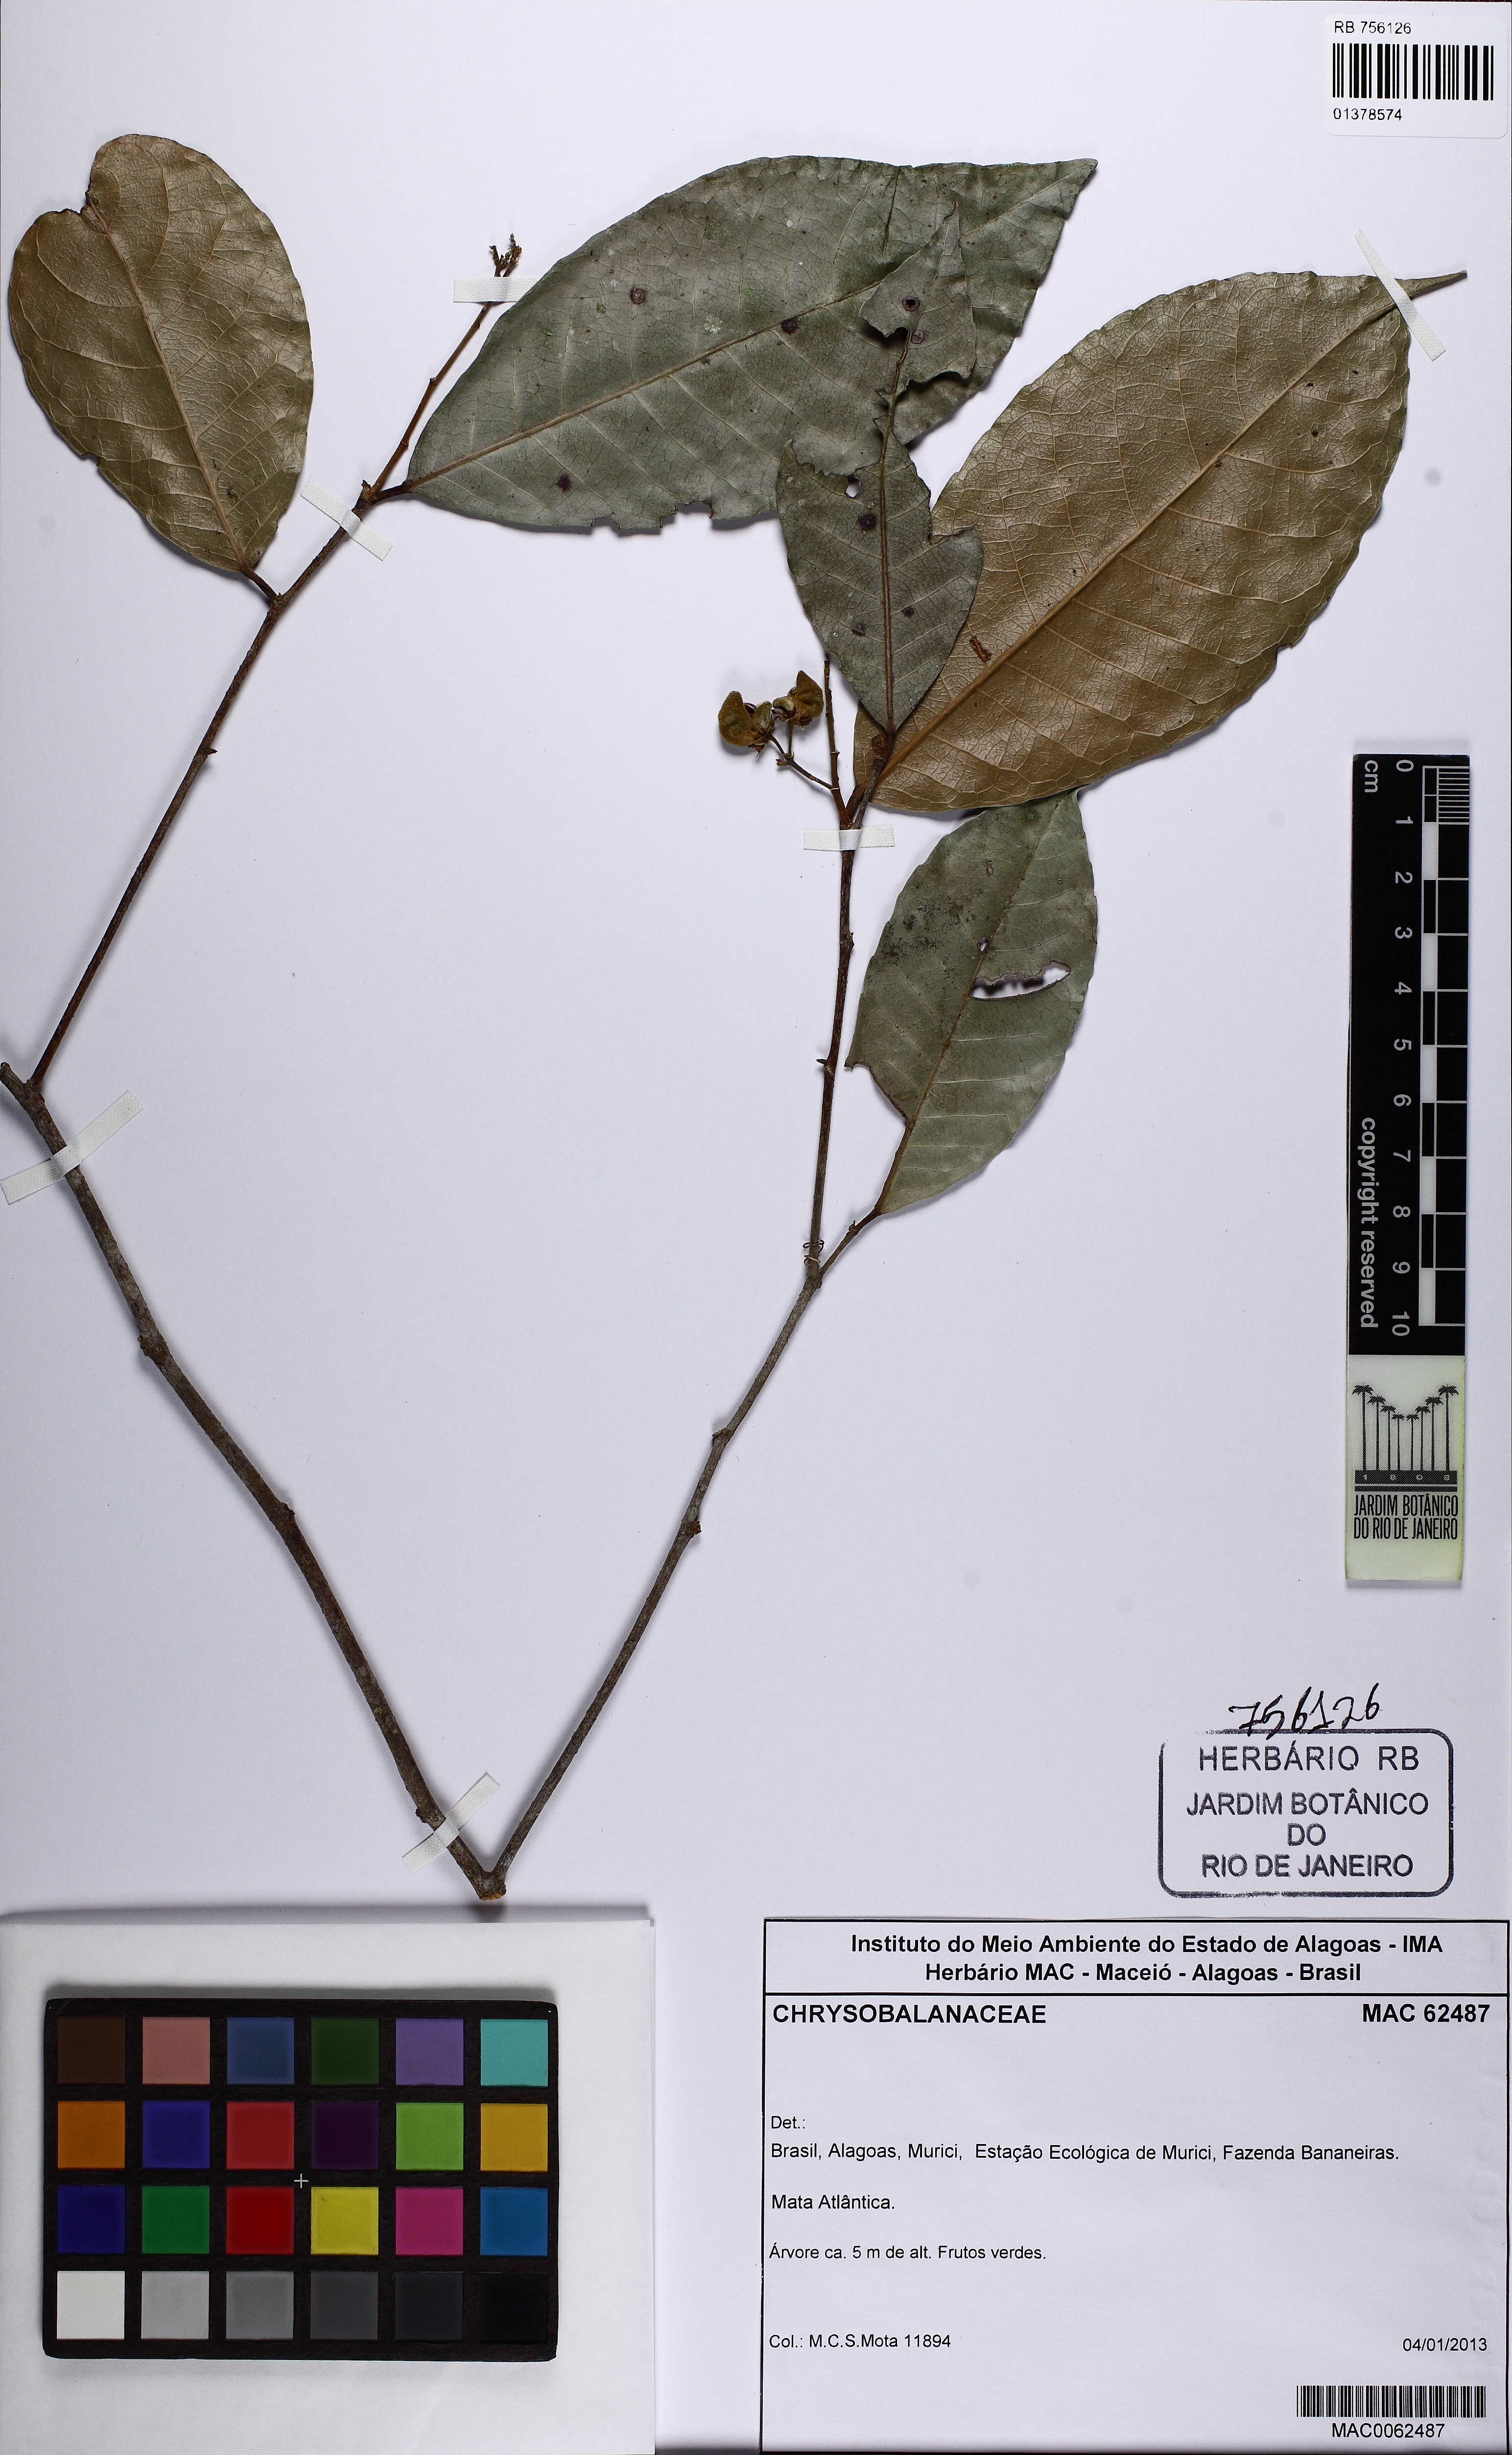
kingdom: Plantae
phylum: Tracheophyta
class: Magnoliopsida
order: Malpighiales
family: Violaceae
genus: Rinorea
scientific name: Rinorea guianensis
